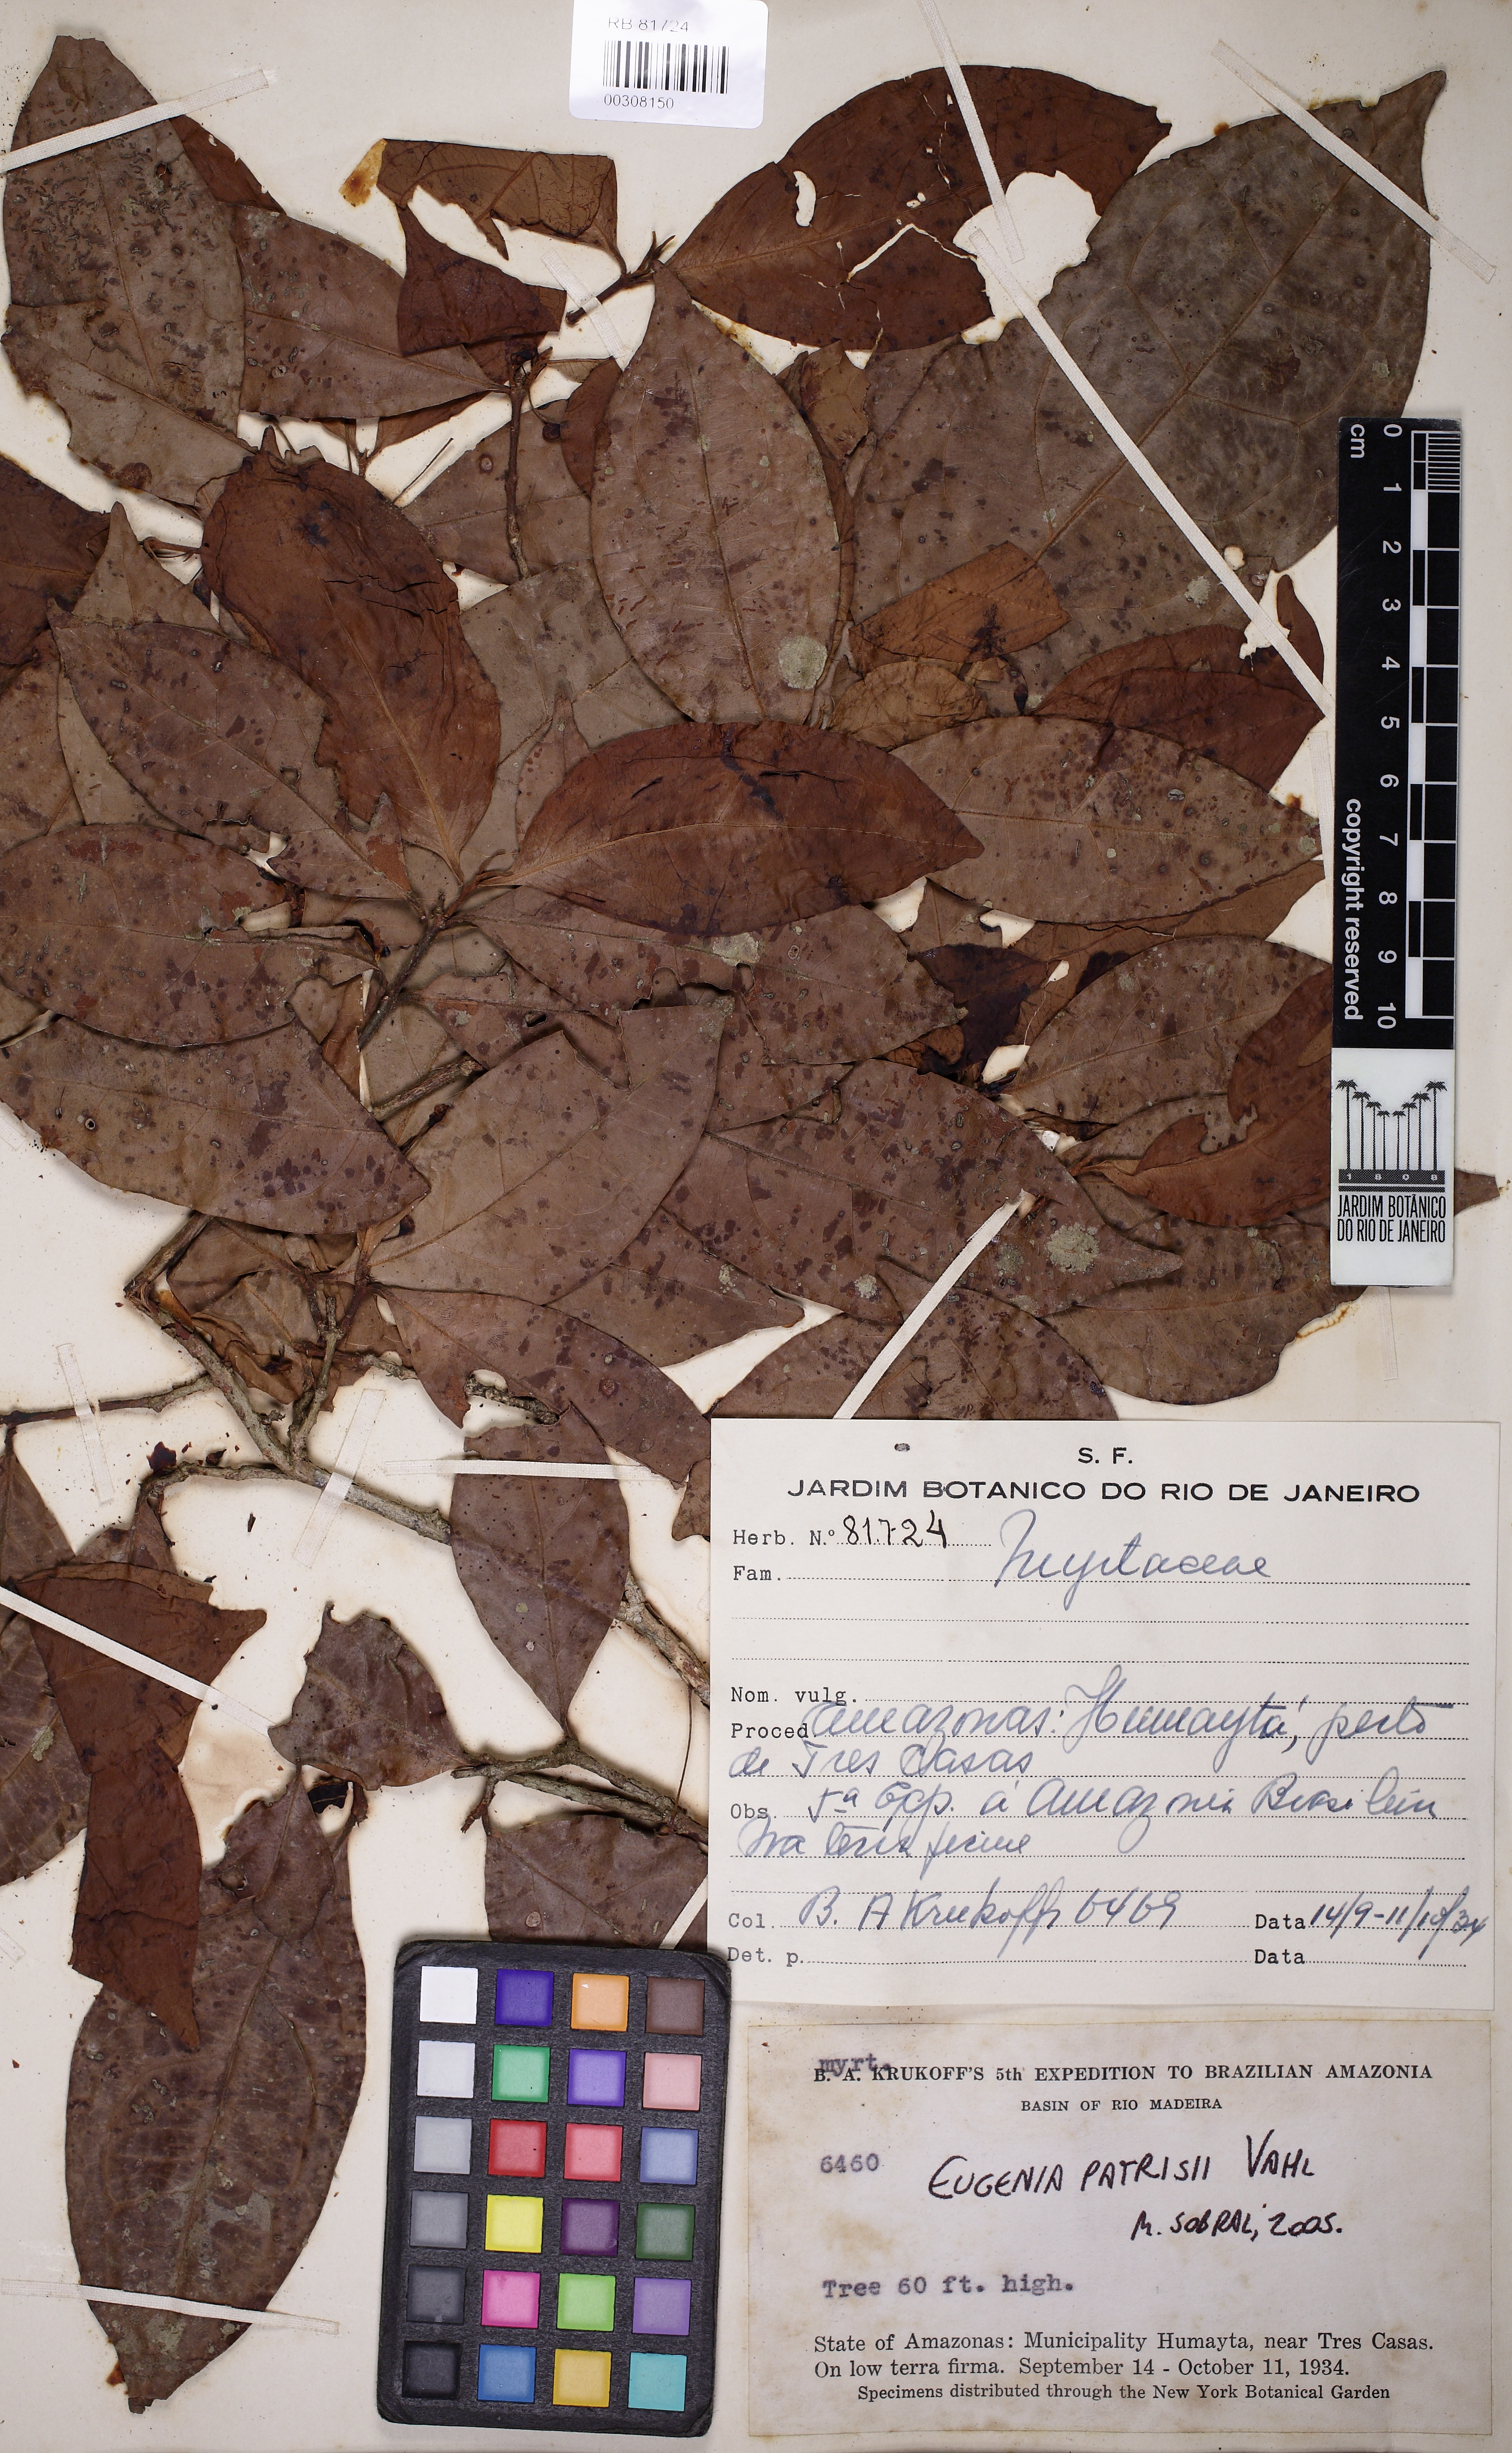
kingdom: Plantae
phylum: Tracheophyta
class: Magnoliopsida
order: Myrtales
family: Myrtaceae
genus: Eugenia
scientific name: Eugenia patrisii
